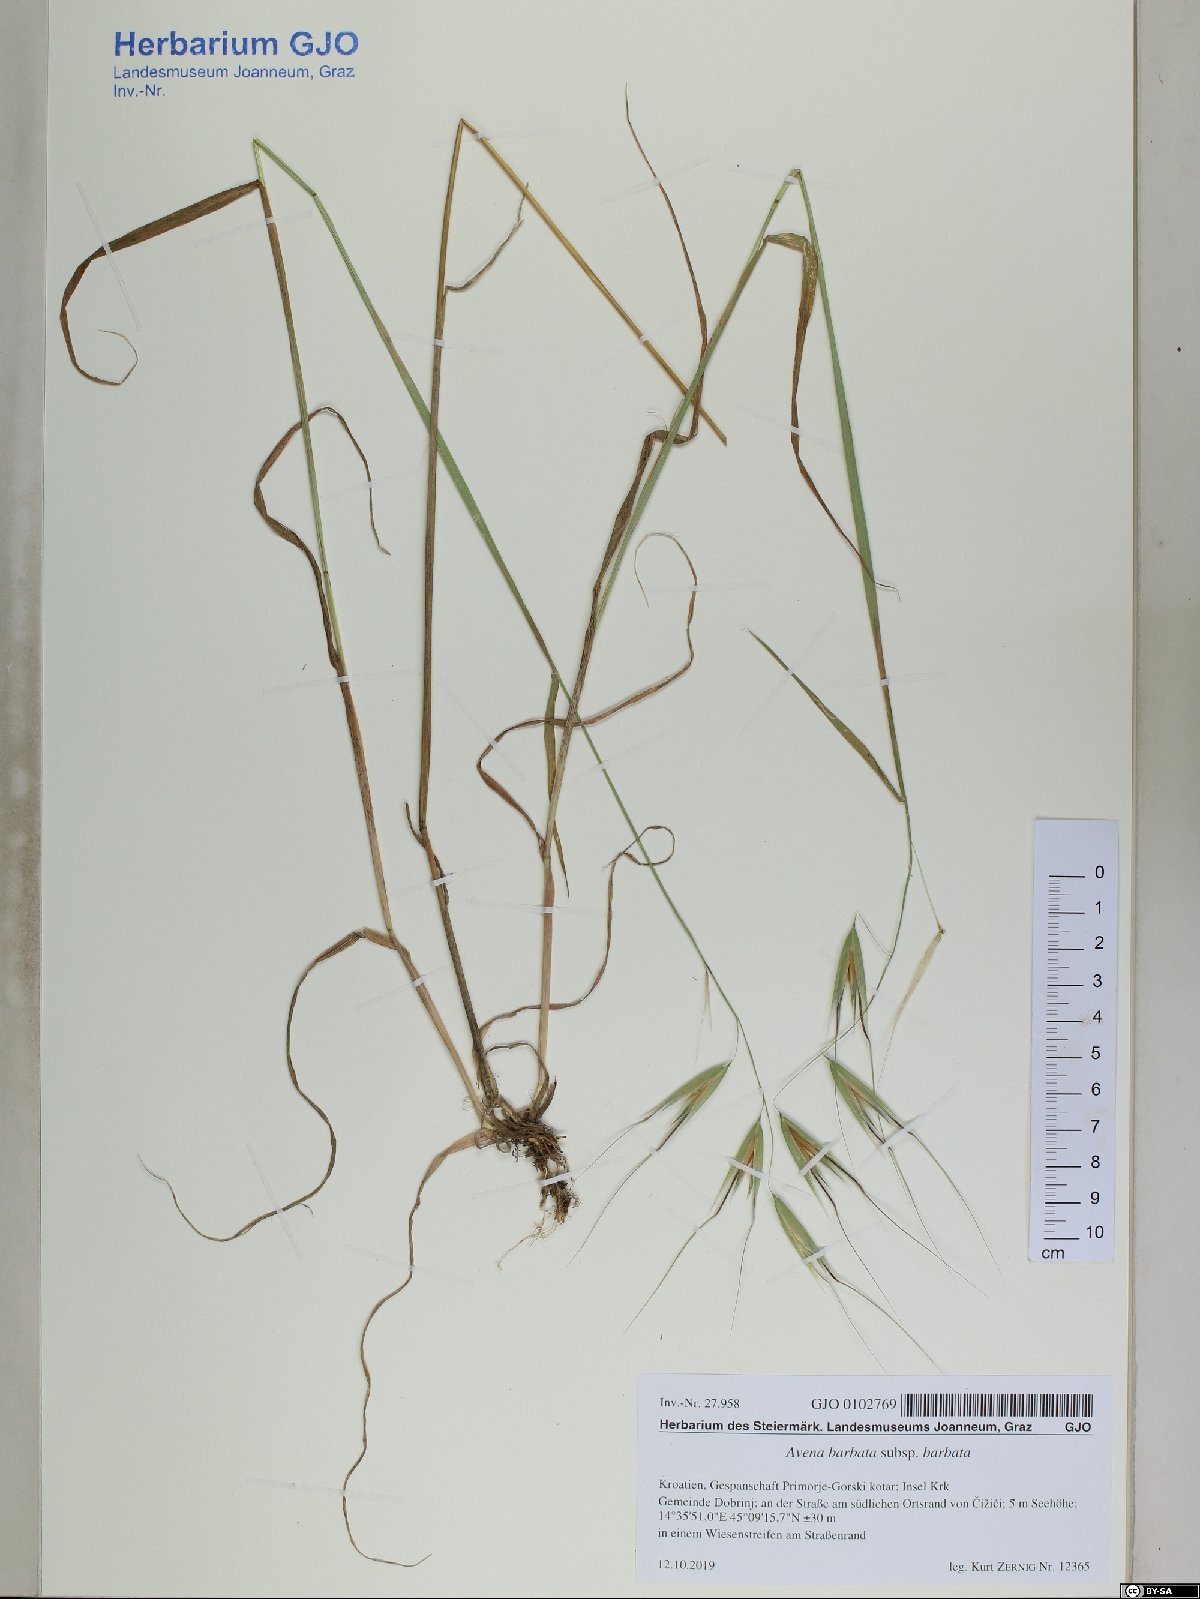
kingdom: Plantae
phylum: Tracheophyta
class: Liliopsida
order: Poales
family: Poaceae
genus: Avena
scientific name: Avena barbata
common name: Slender oat
